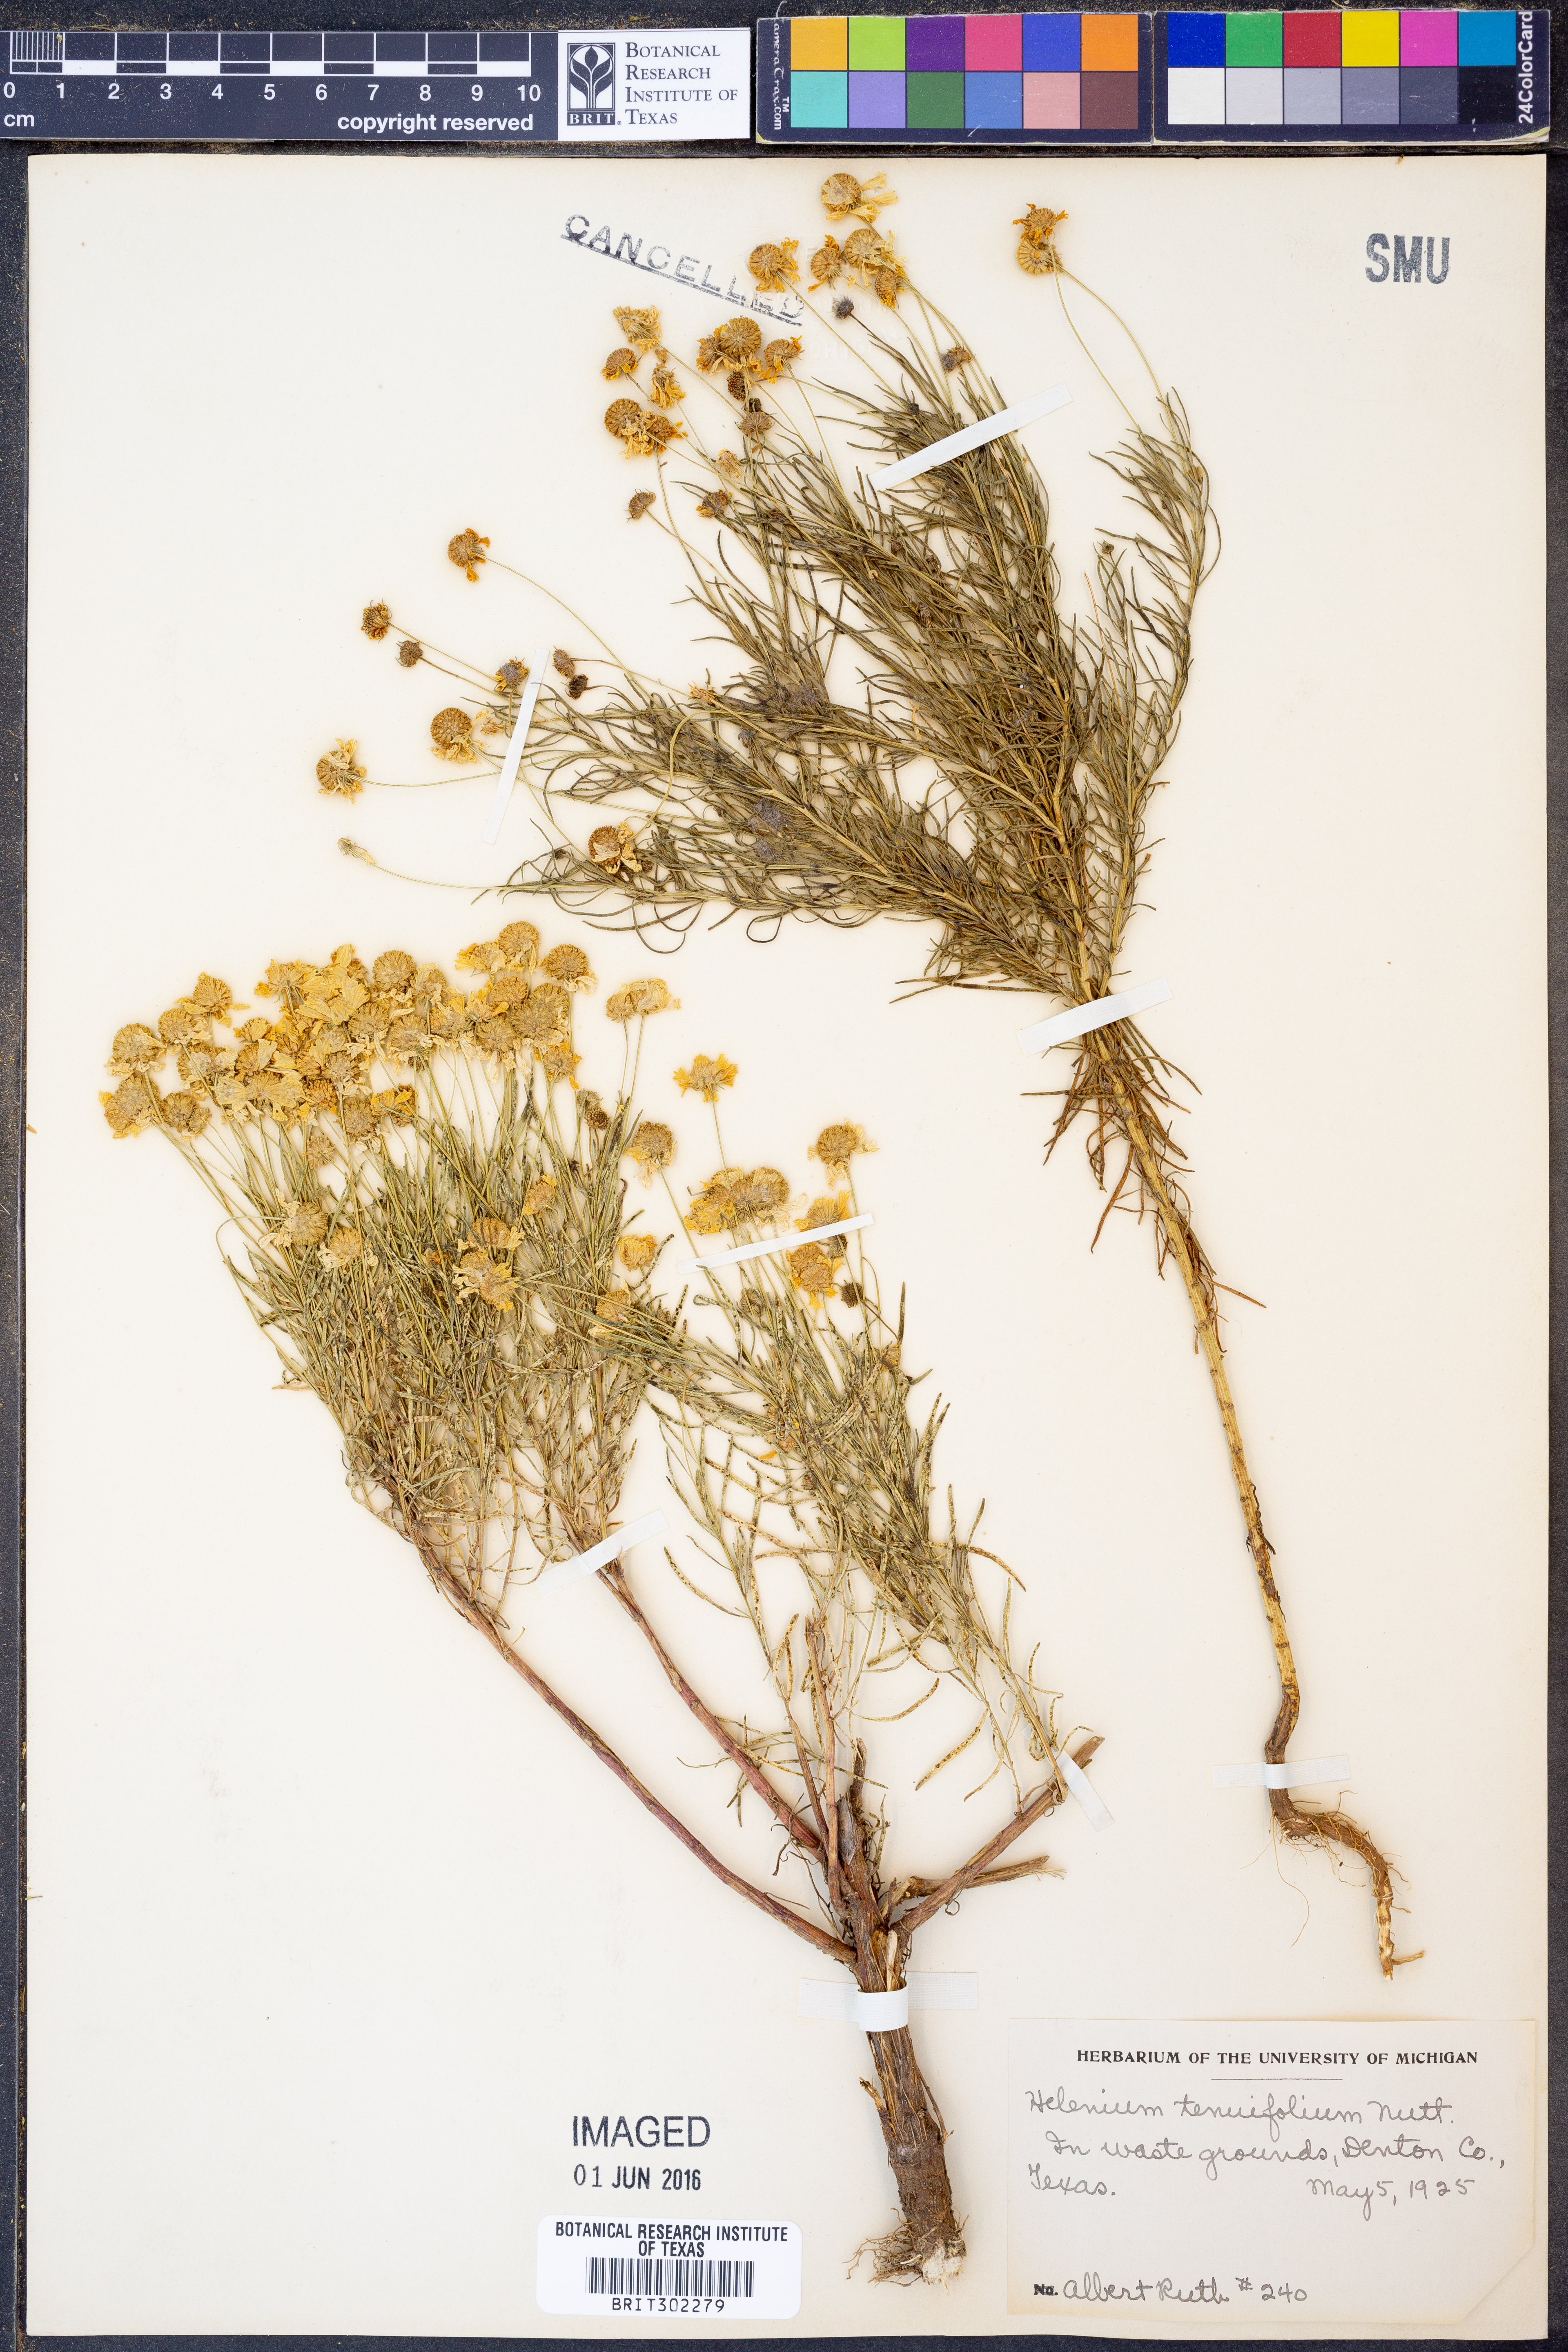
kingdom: Plantae
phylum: Tracheophyta
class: Magnoliopsida
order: Asterales
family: Asteraceae
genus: Helenium
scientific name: Helenium amarum
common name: Bitter sneezeweed
